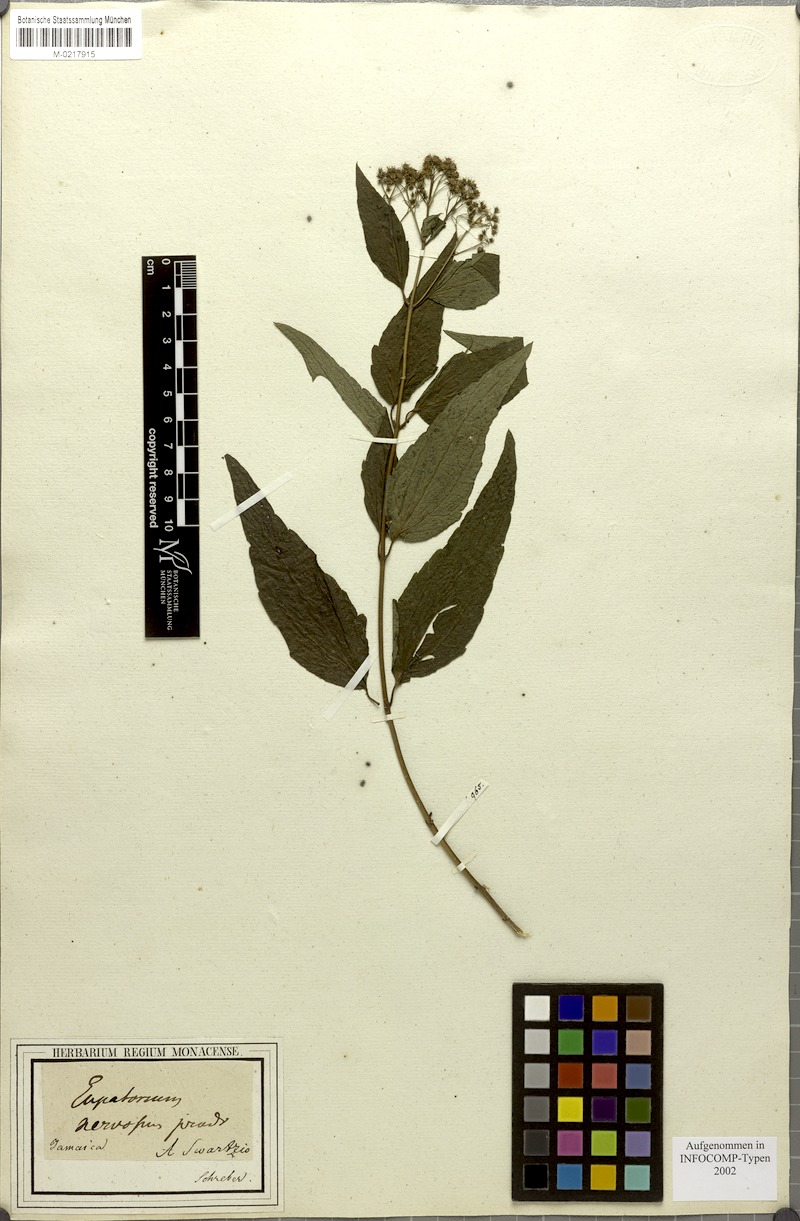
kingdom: Plantae
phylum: Tracheophyta
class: Magnoliopsida
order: Asterales
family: Asteraceae
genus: Koanophyllon
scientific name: Koanophyllon nervosum
